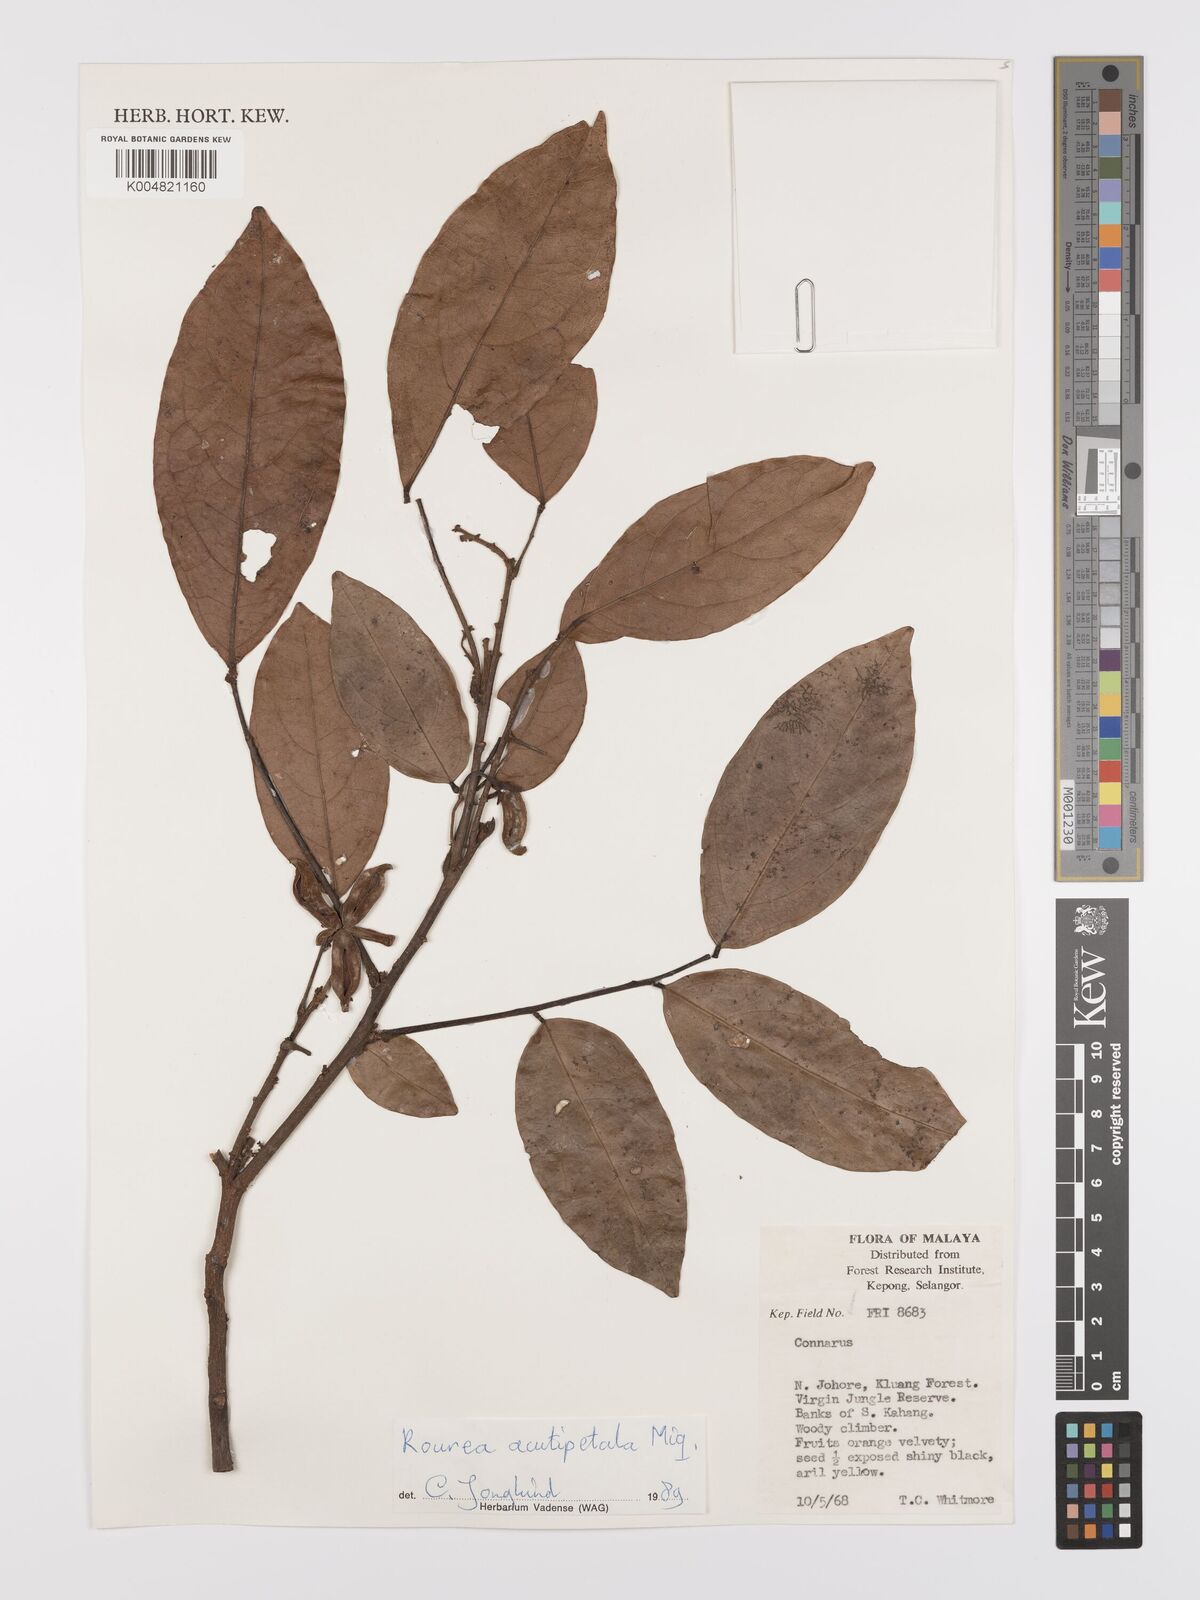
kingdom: Plantae
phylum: Tracheophyta
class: Magnoliopsida
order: Oxalidales
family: Connaraceae
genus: Rourea
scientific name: Rourea acutipetala
